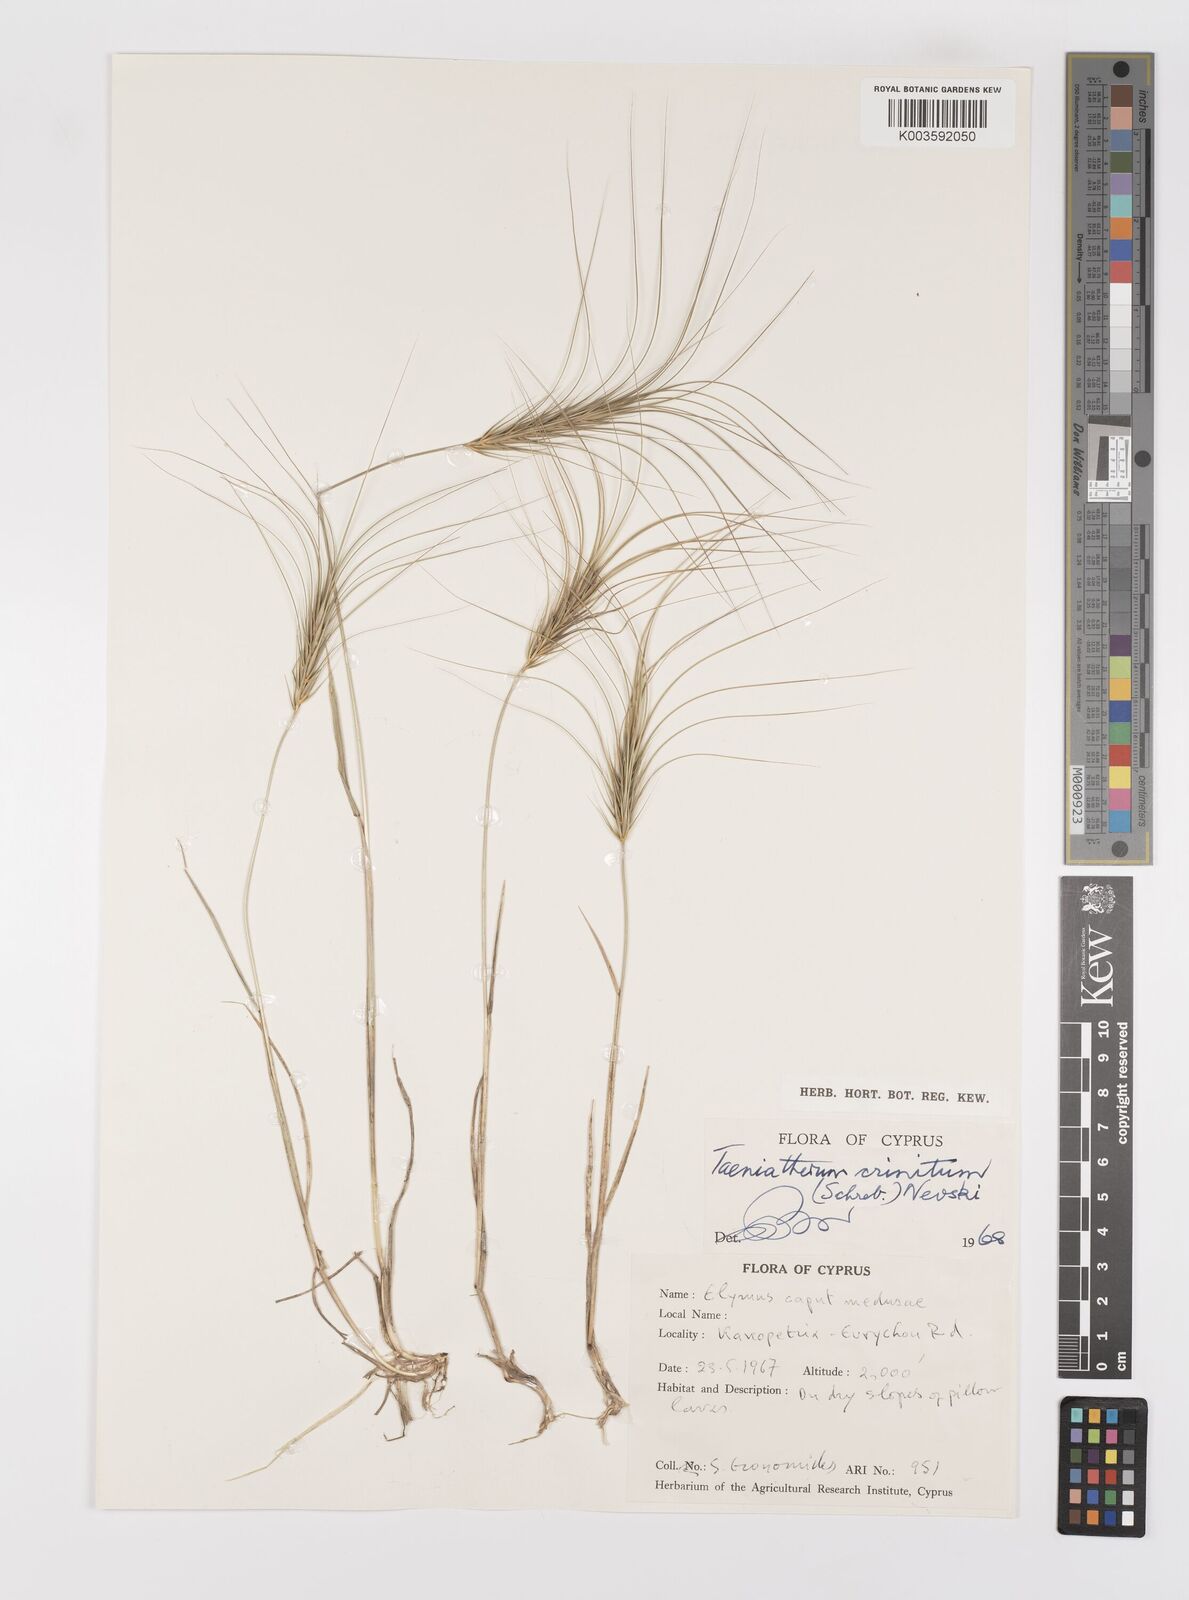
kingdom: Plantae
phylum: Tracheophyta
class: Liliopsida
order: Poales
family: Poaceae
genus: Taeniatherum
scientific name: Taeniatherum caput-medusae
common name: Medusahead
